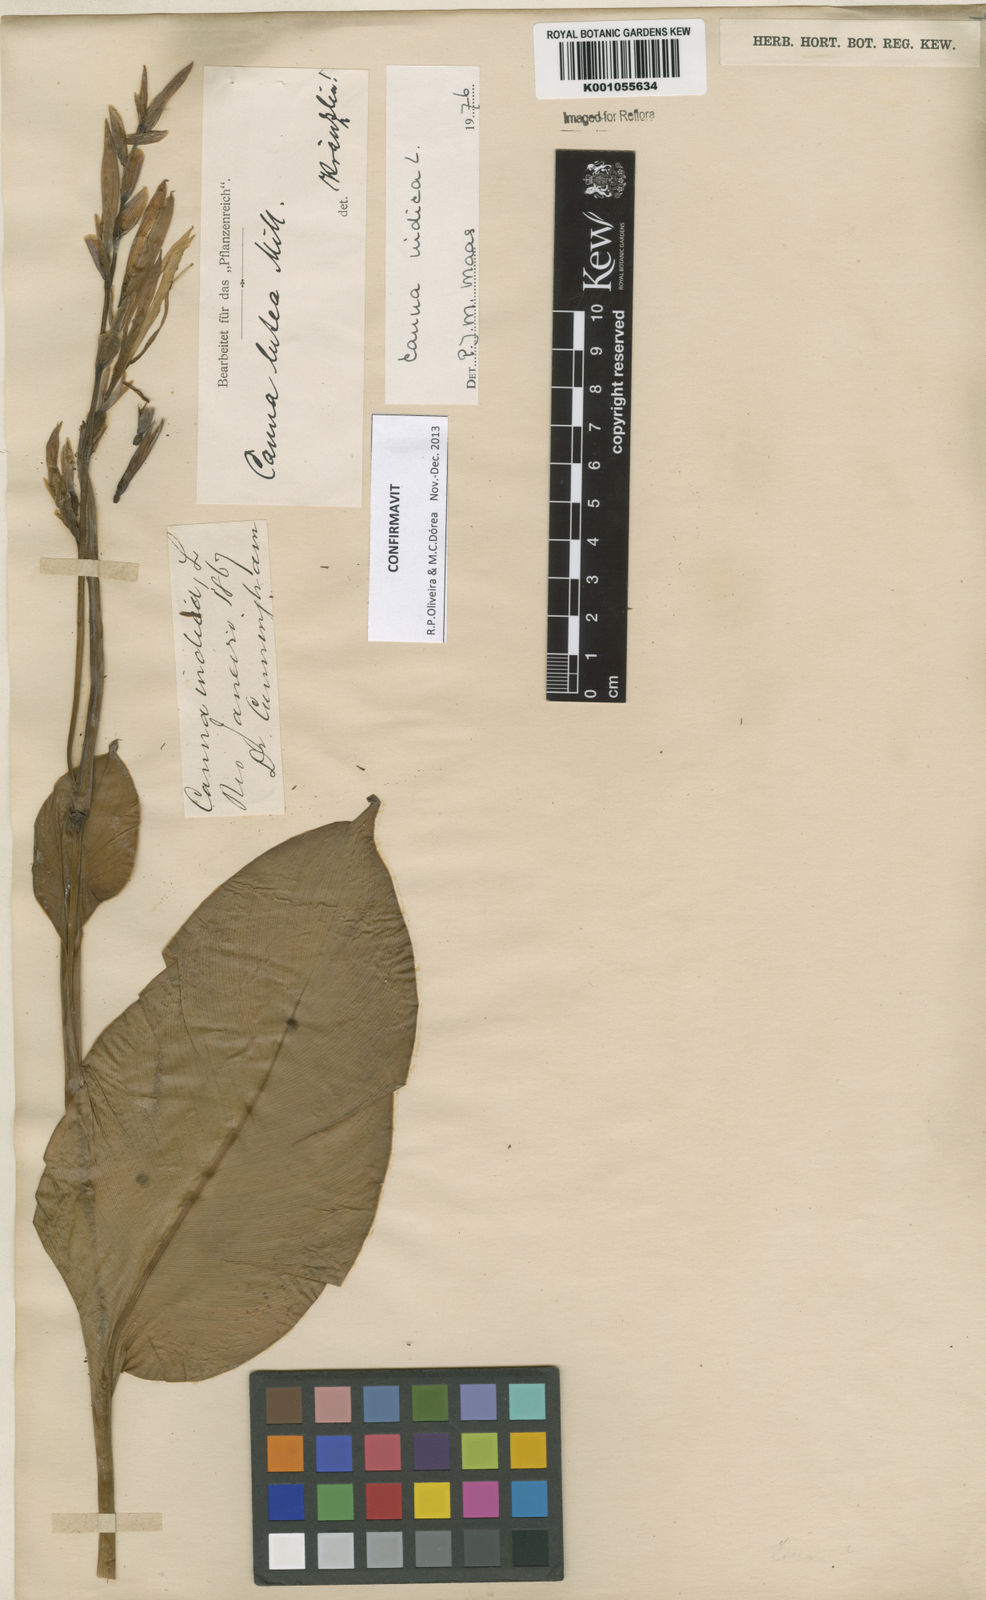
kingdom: Plantae
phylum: Tracheophyta
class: Liliopsida
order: Zingiberales
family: Cannaceae
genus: Canna
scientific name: Canna indica
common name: Indian shot
